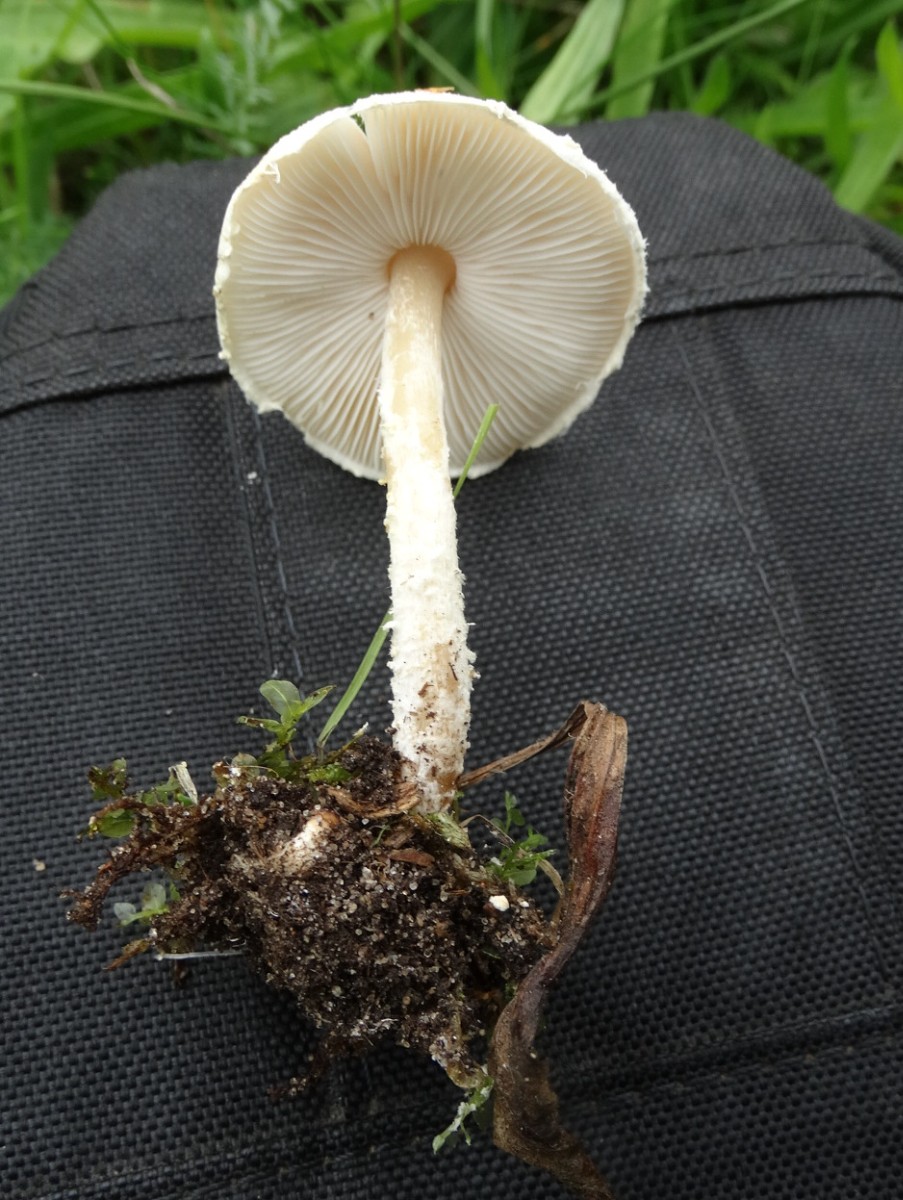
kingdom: Fungi
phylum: Basidiomycota
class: Agaricomycetes
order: Agaricales
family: Agaricaceae
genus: Lepiota
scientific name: Lepiota oreadiformis
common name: blegbrun parasolhat
